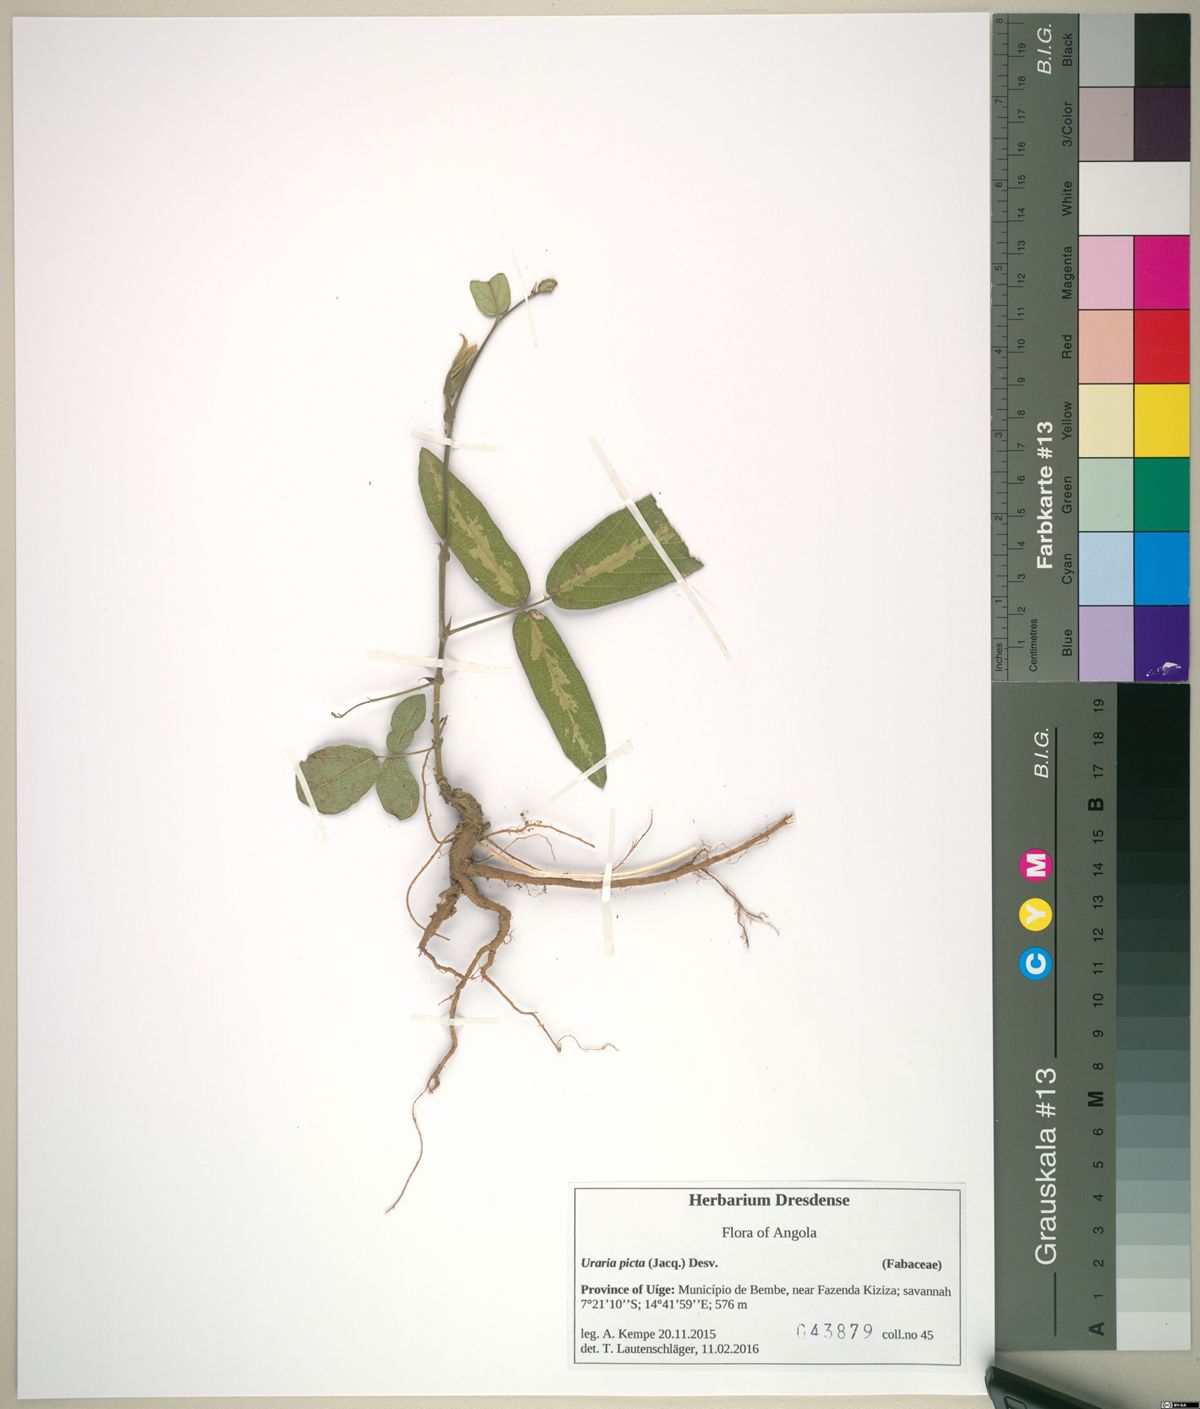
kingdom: Plantae
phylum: Tracheophyta
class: Magnoliopsida
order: Fabales
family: Fabaceae
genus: Uraria
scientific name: Uraria picta
